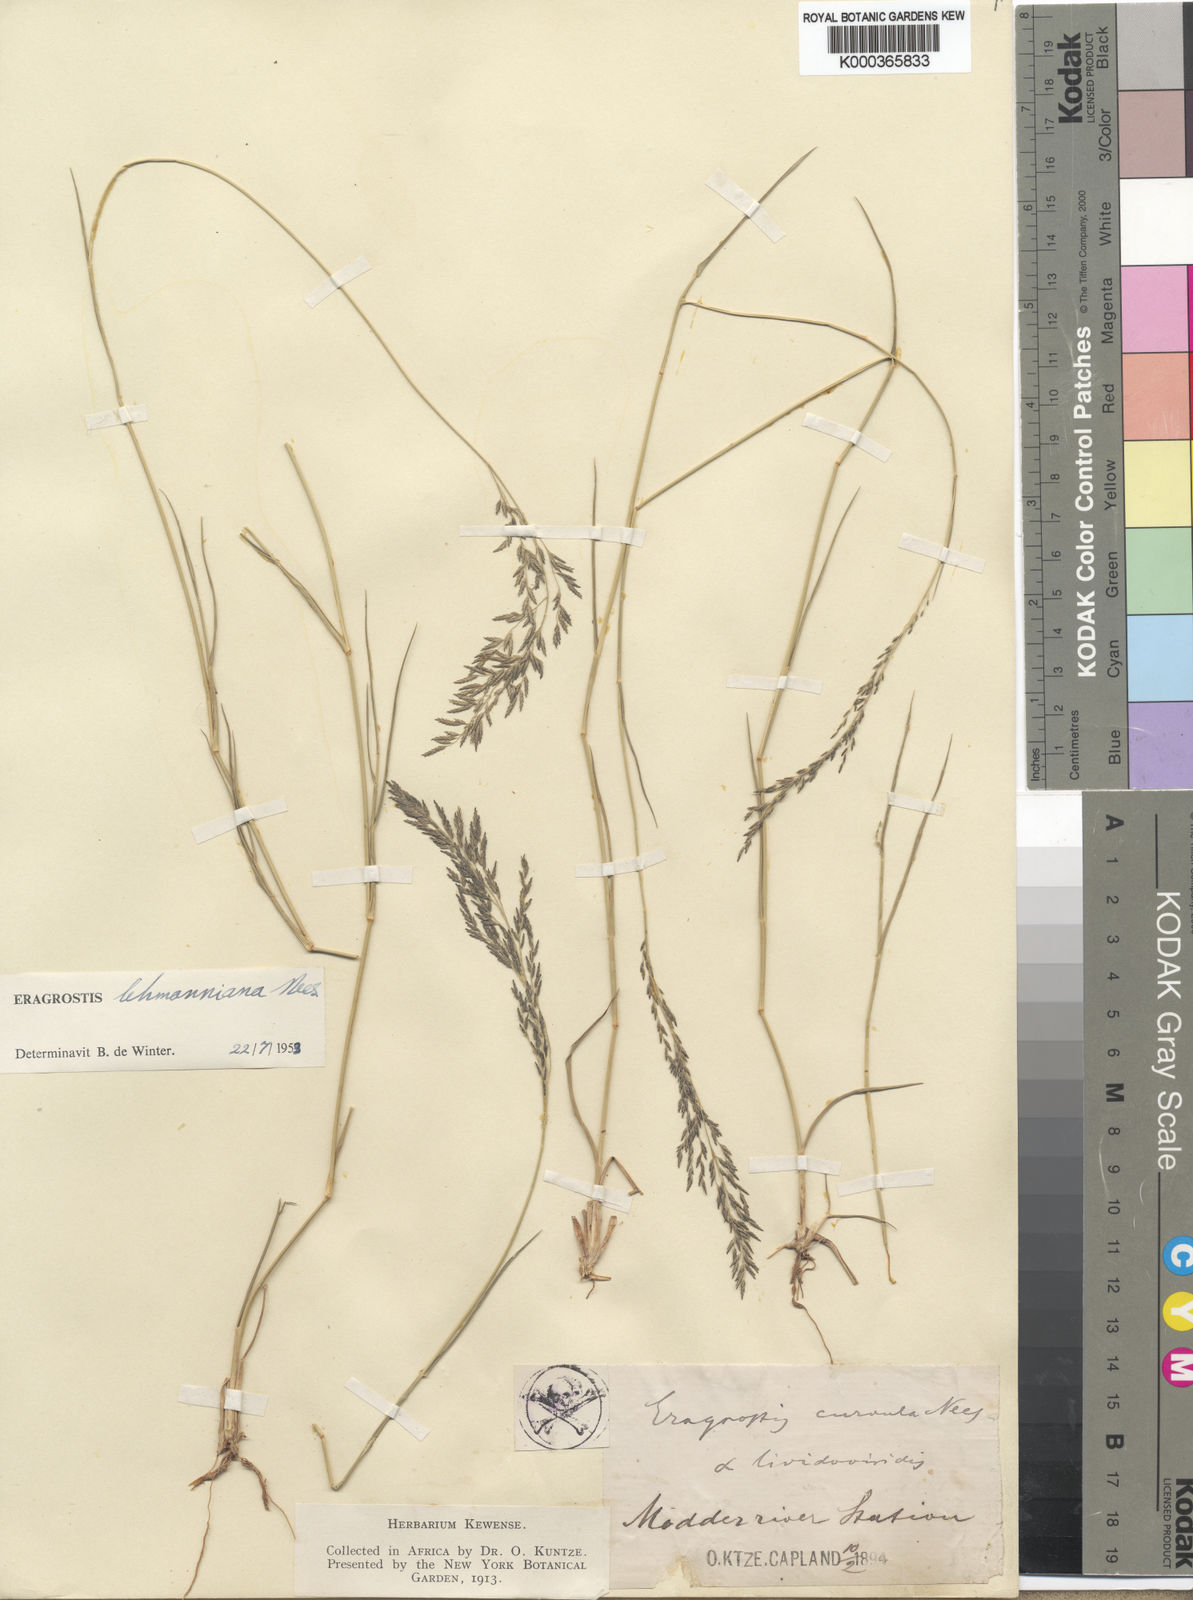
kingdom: Plantae
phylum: Tracheophyta
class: Liliopsida
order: Poales
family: Poaceae
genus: Eragrostis
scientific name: Eragrostis curvula
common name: African love-grass
